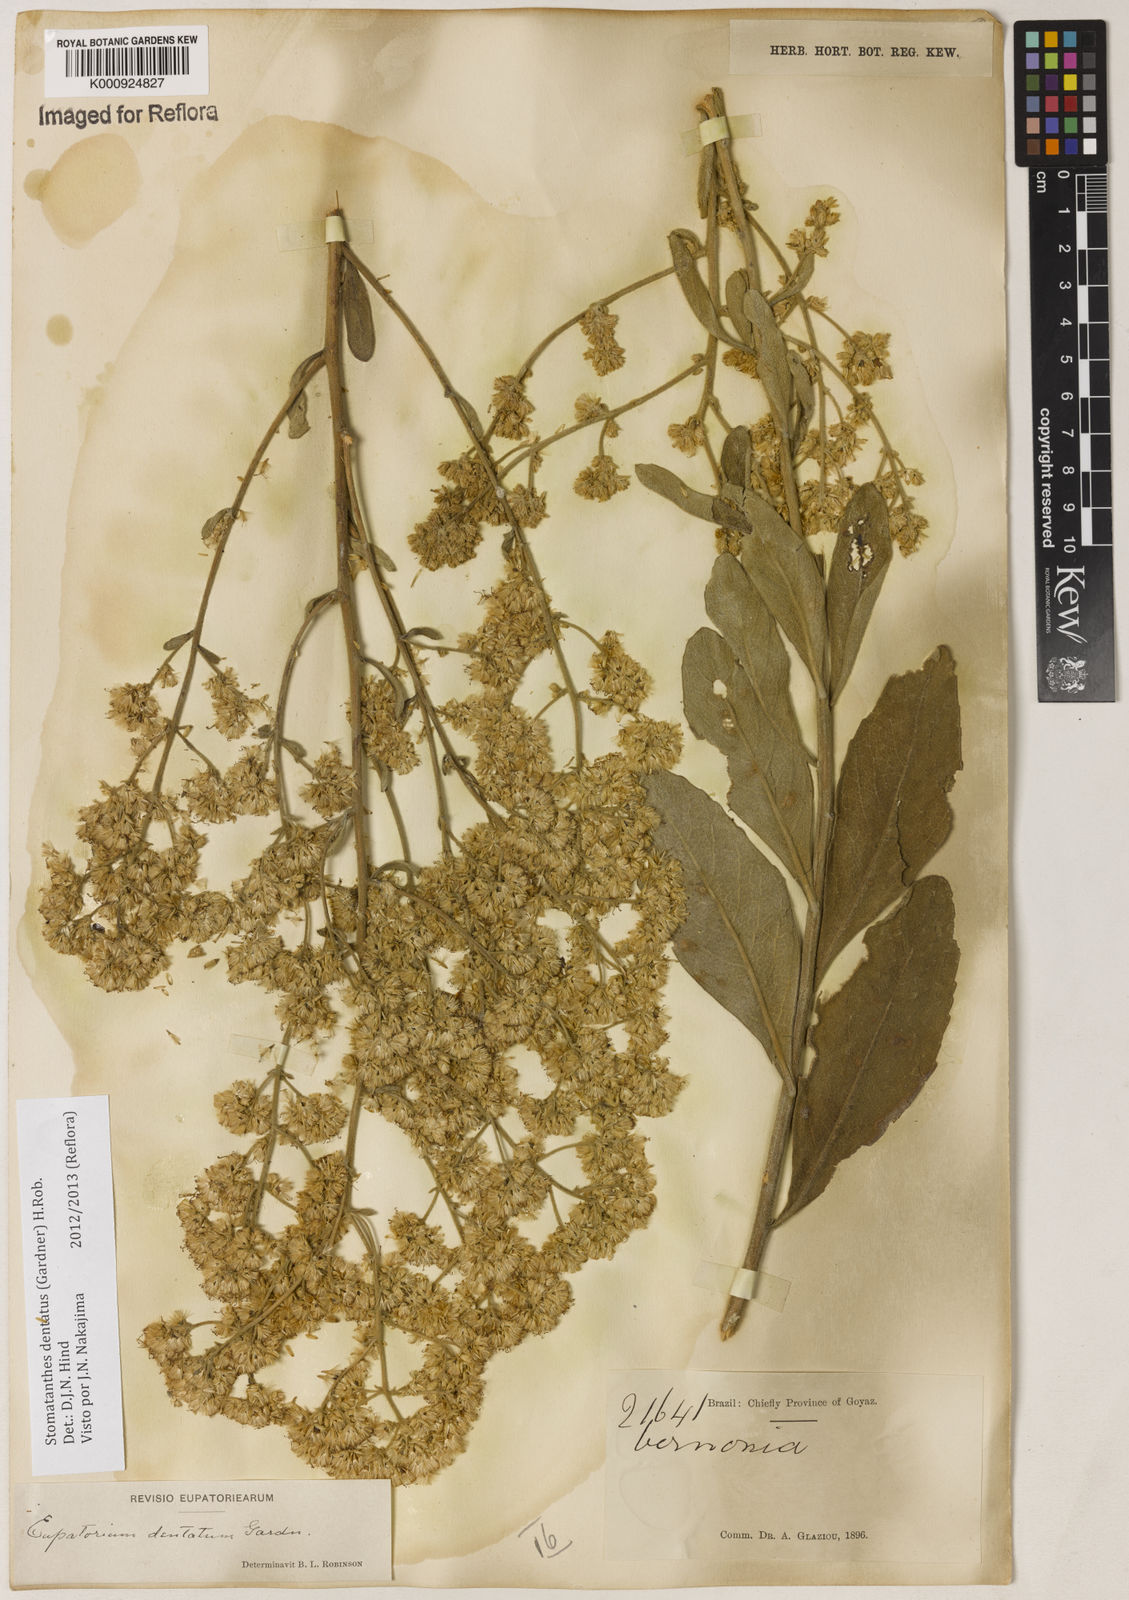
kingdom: Plantae
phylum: Tracheophyta
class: Magnoliopsida
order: Asterales
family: Asteraceae
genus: Stomatanthes
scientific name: Stomatanthes dentatus
